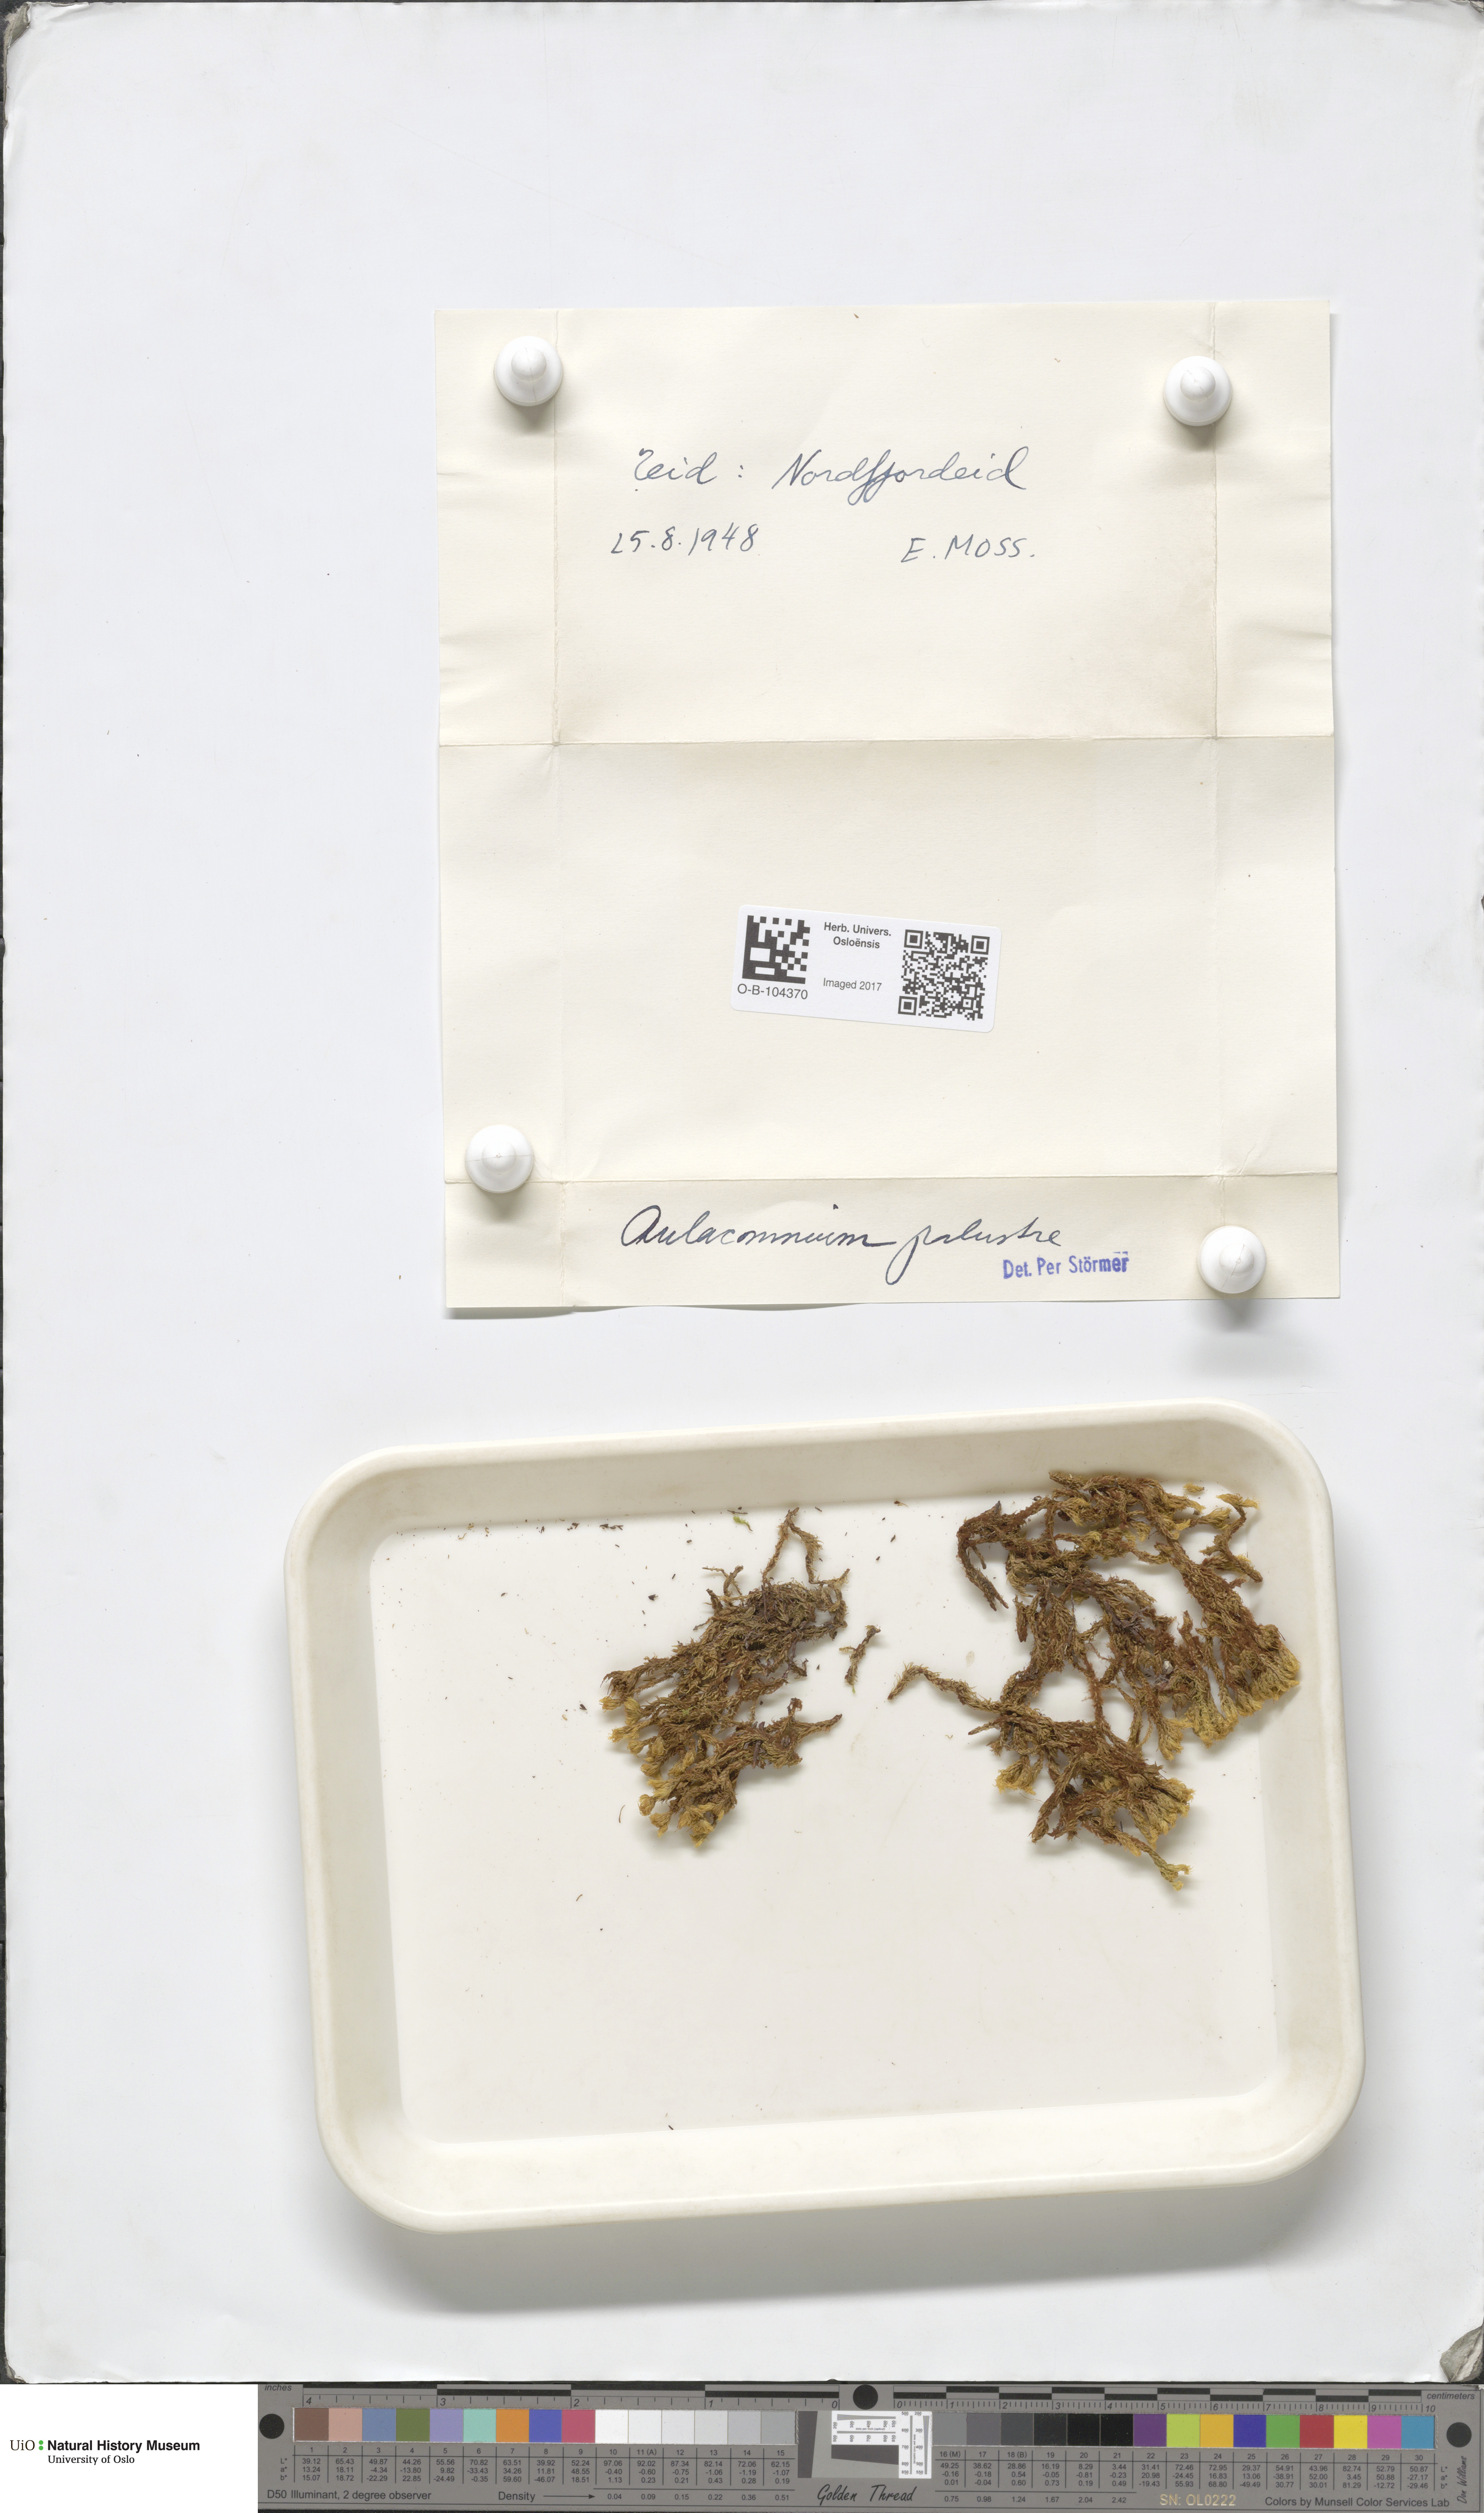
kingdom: Plantae
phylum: Bryophyta
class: Bryopsida
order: Aulacomniales
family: Aulacomniaceae
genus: Aulacomnium
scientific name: Aulacomnium palustre
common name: Bog groove-moss
